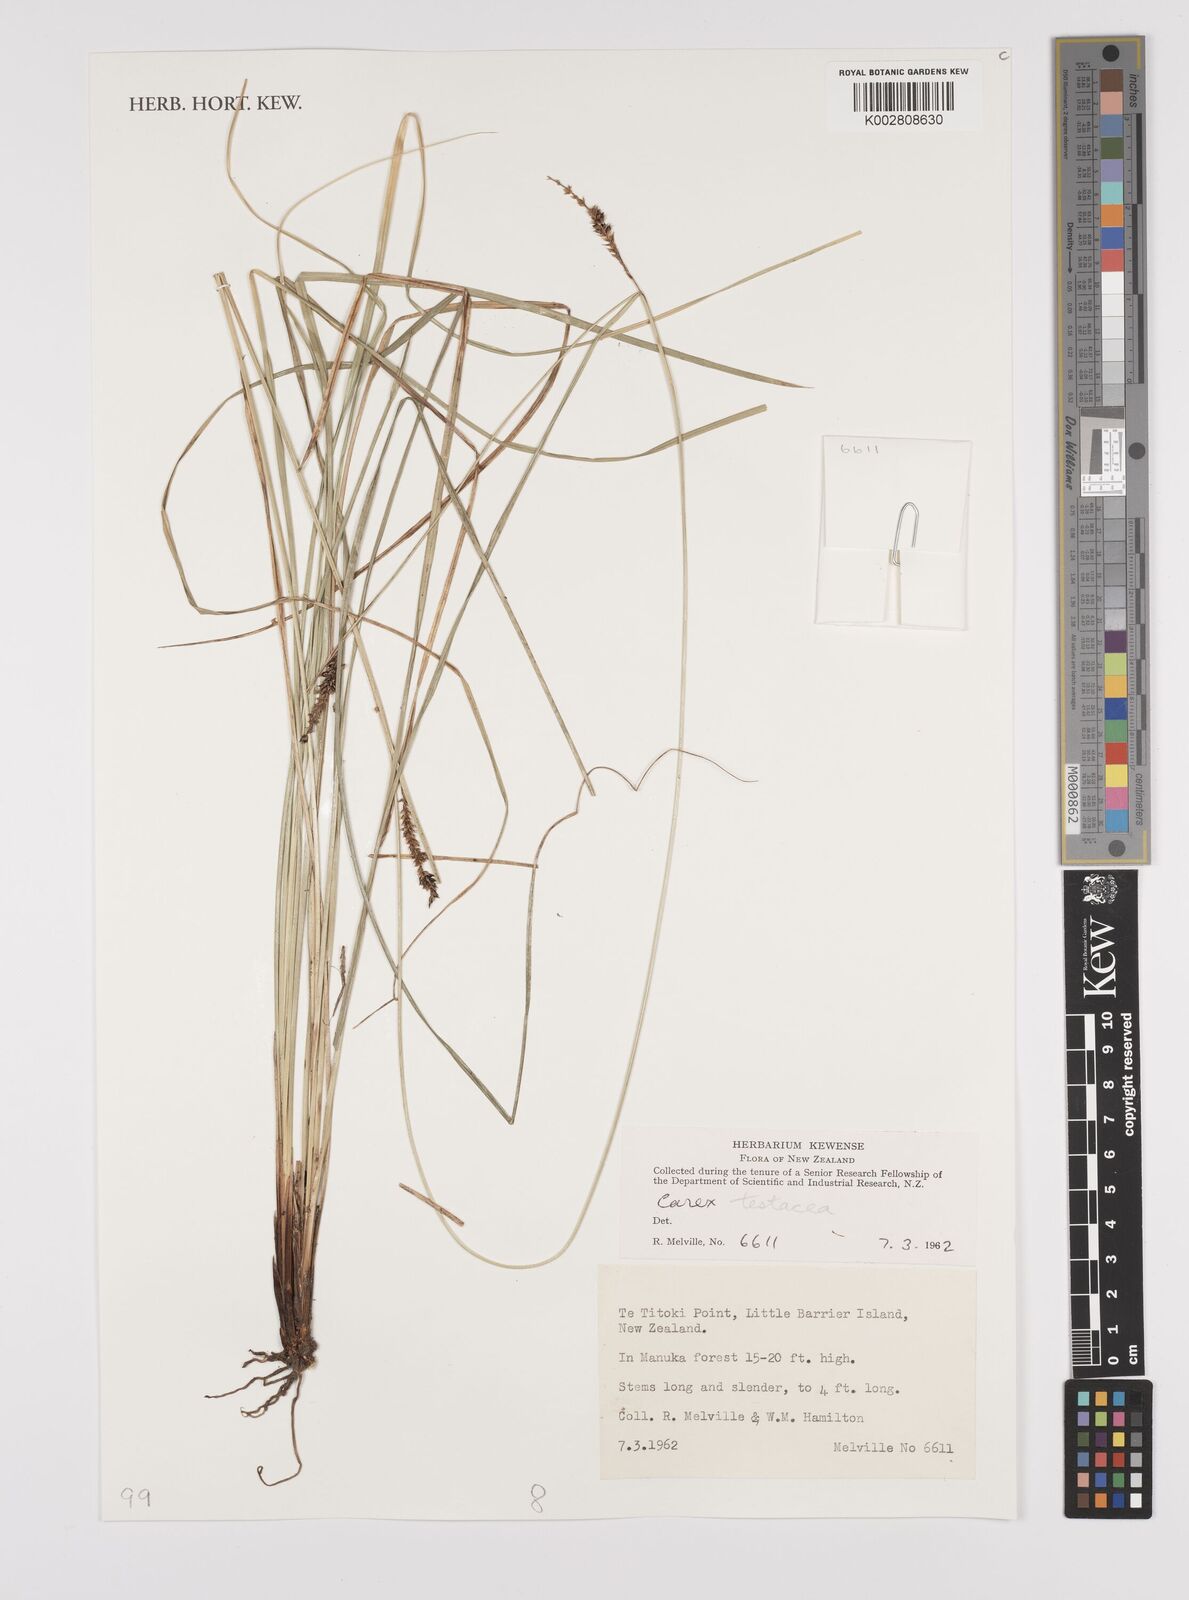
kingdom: Plantae
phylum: Tracheophyta
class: Liliopsida
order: Poales
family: Cyperaceae
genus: Carex
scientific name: Carex testacea
